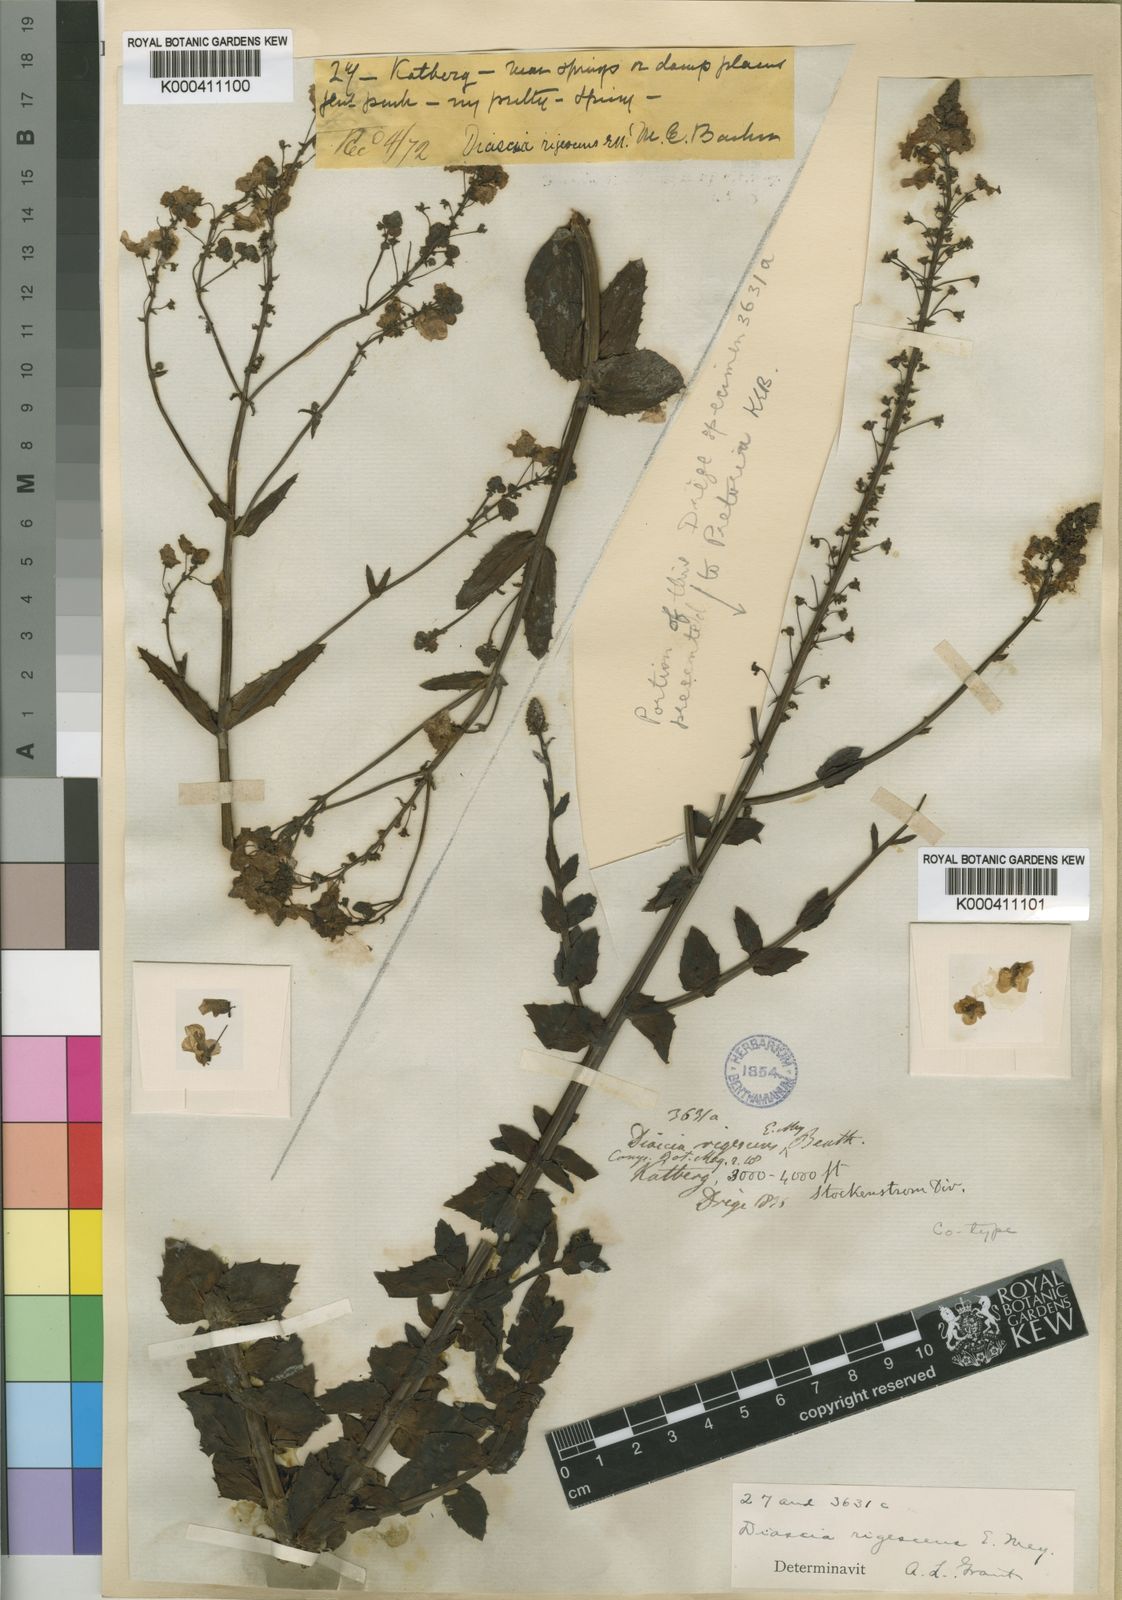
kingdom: Plantae
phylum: Tracheophyta
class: Magnoliopsida
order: Lamiales
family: Scrophulariaceae
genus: Diascia
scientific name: Diascia rigescens
